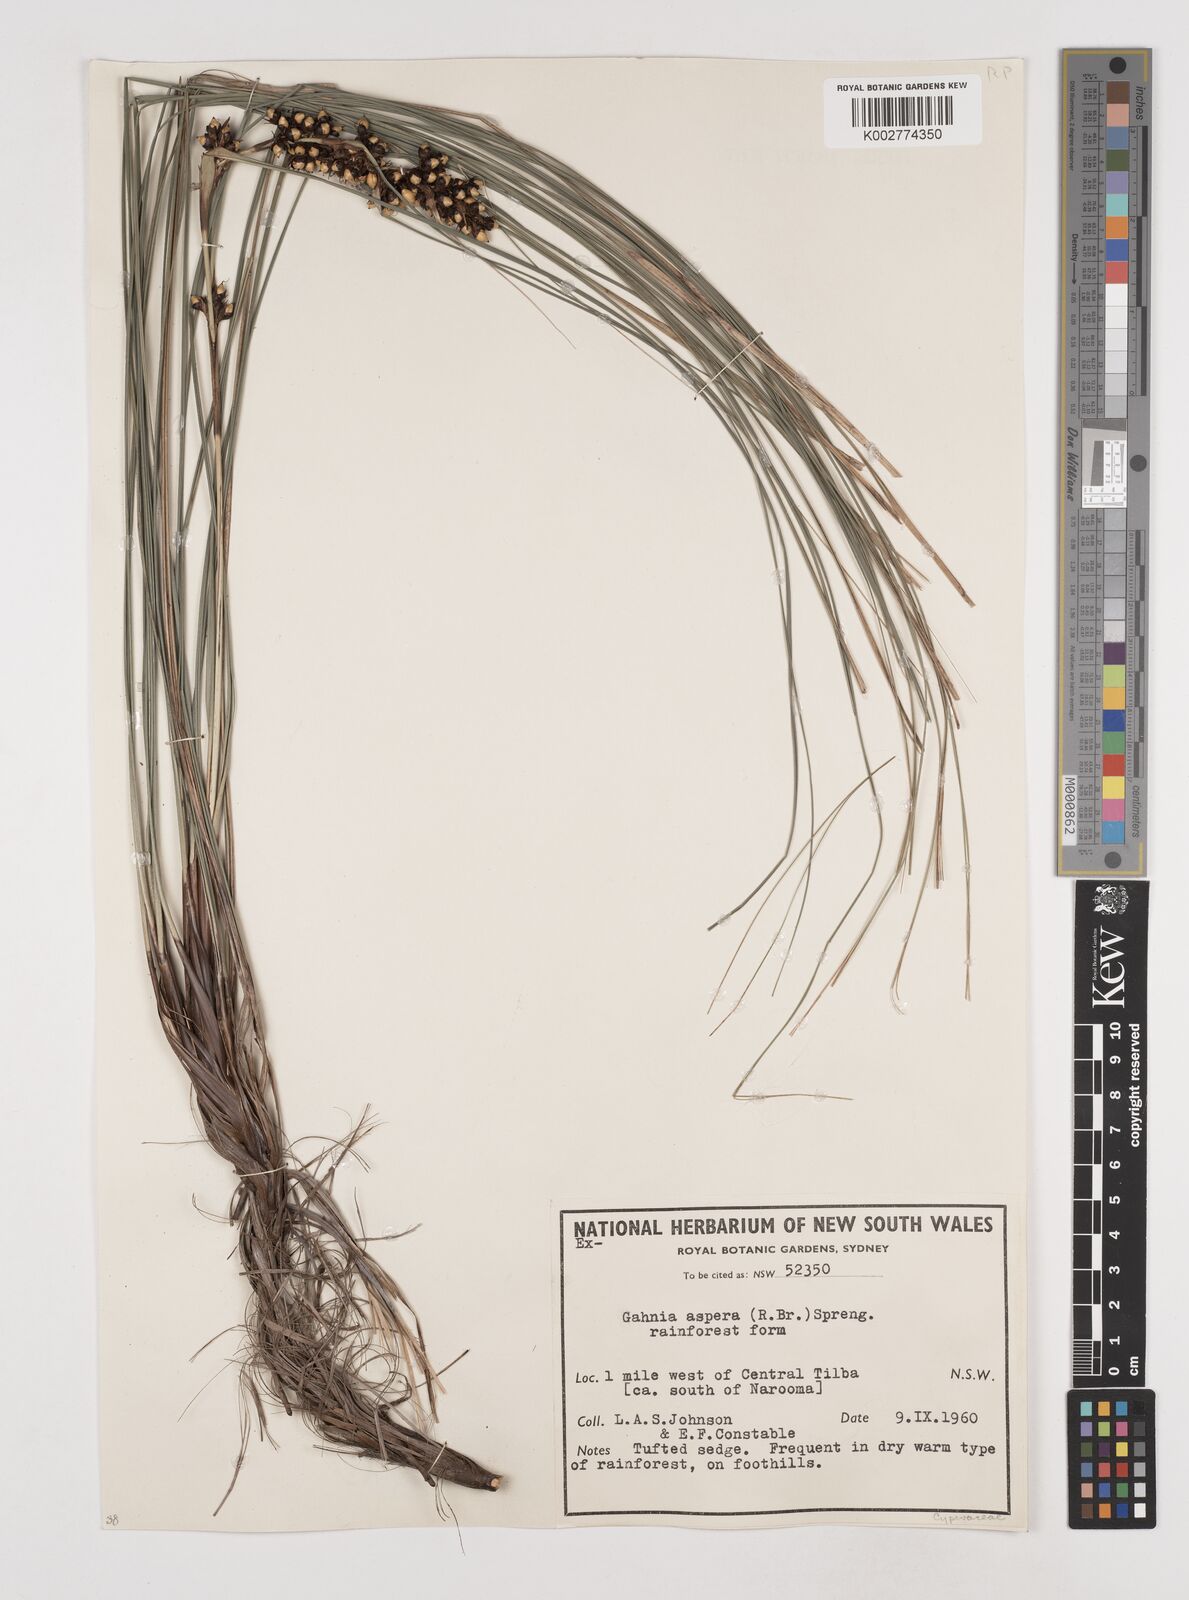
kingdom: Plantae
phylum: Tracheophyta
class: Liliopsida
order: Poales
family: Cyperaceae
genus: Gahnia
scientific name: Gahnia aspera
